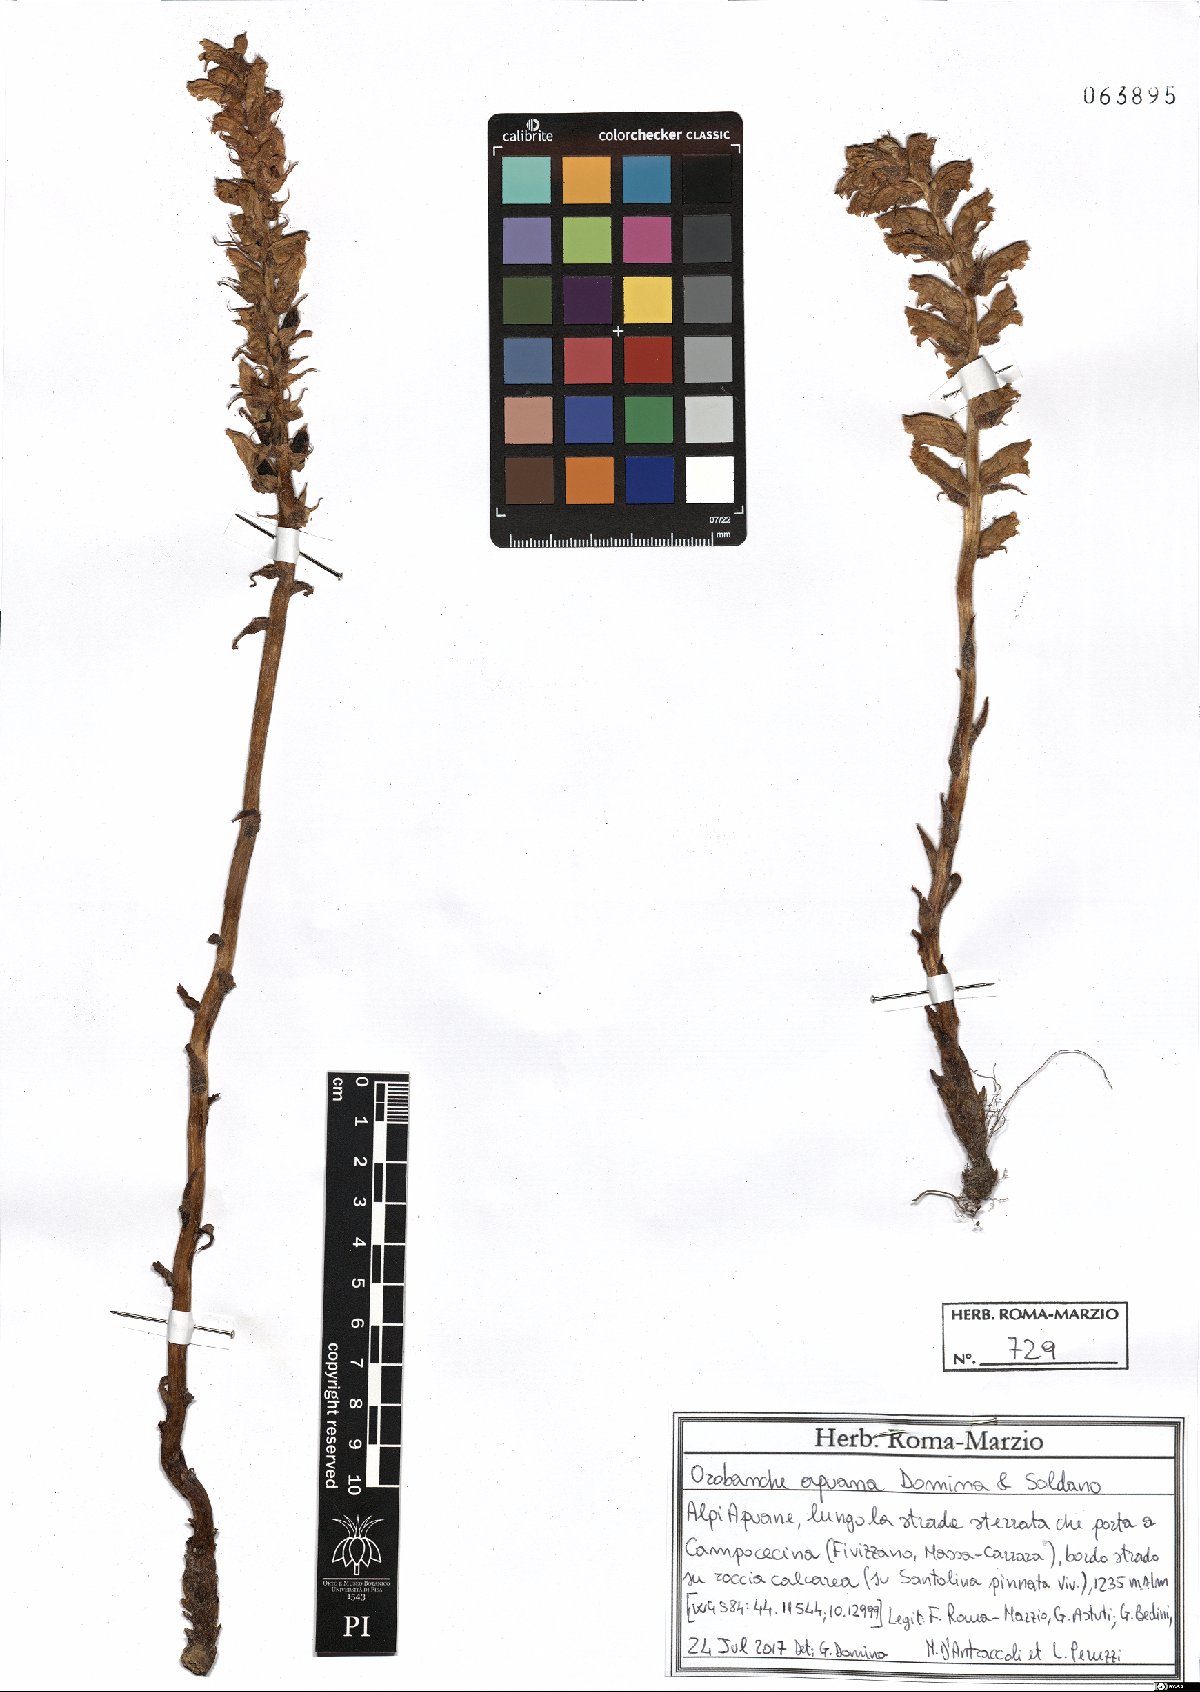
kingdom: Plantae
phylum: Tracheophyta
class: Magnoliopsida
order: Lamiales
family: Orobanchaceae
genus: Orobanche
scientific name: Orobanche apuana
